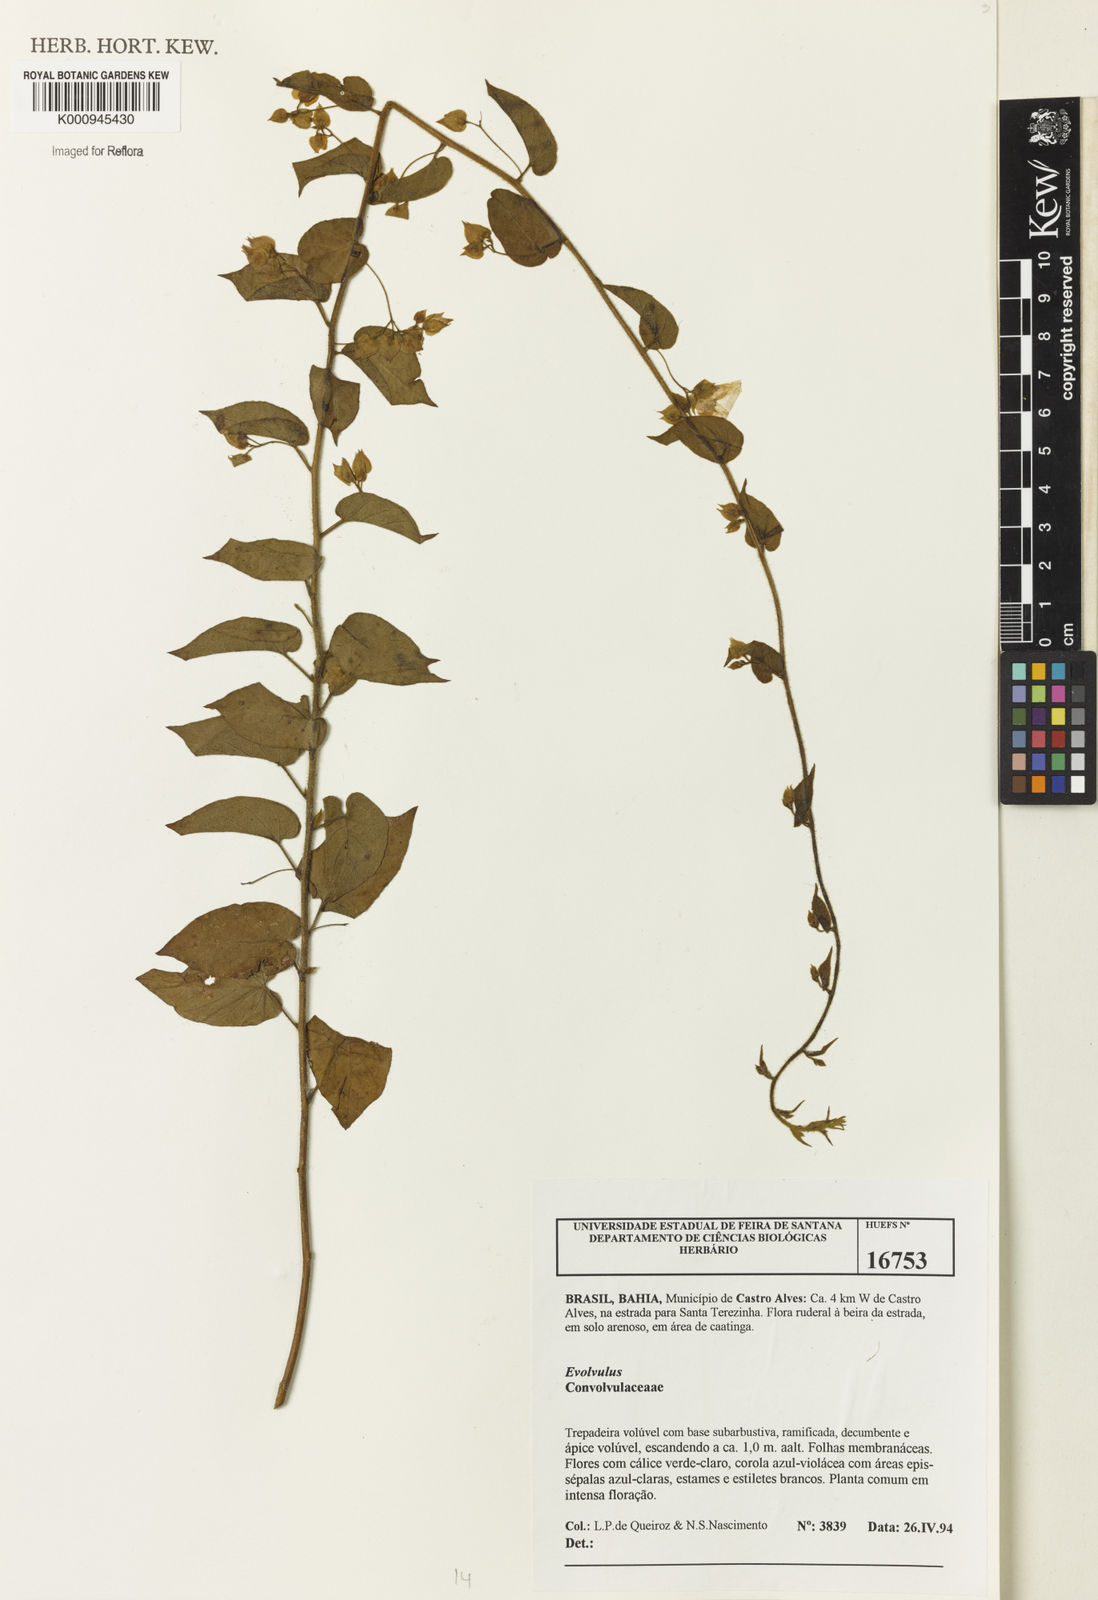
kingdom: Plantae
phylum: Tracheophyta
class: Magnoliopsida
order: Solanales
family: Convolvulaceae
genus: Jacquemontia
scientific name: Jacquemontia
